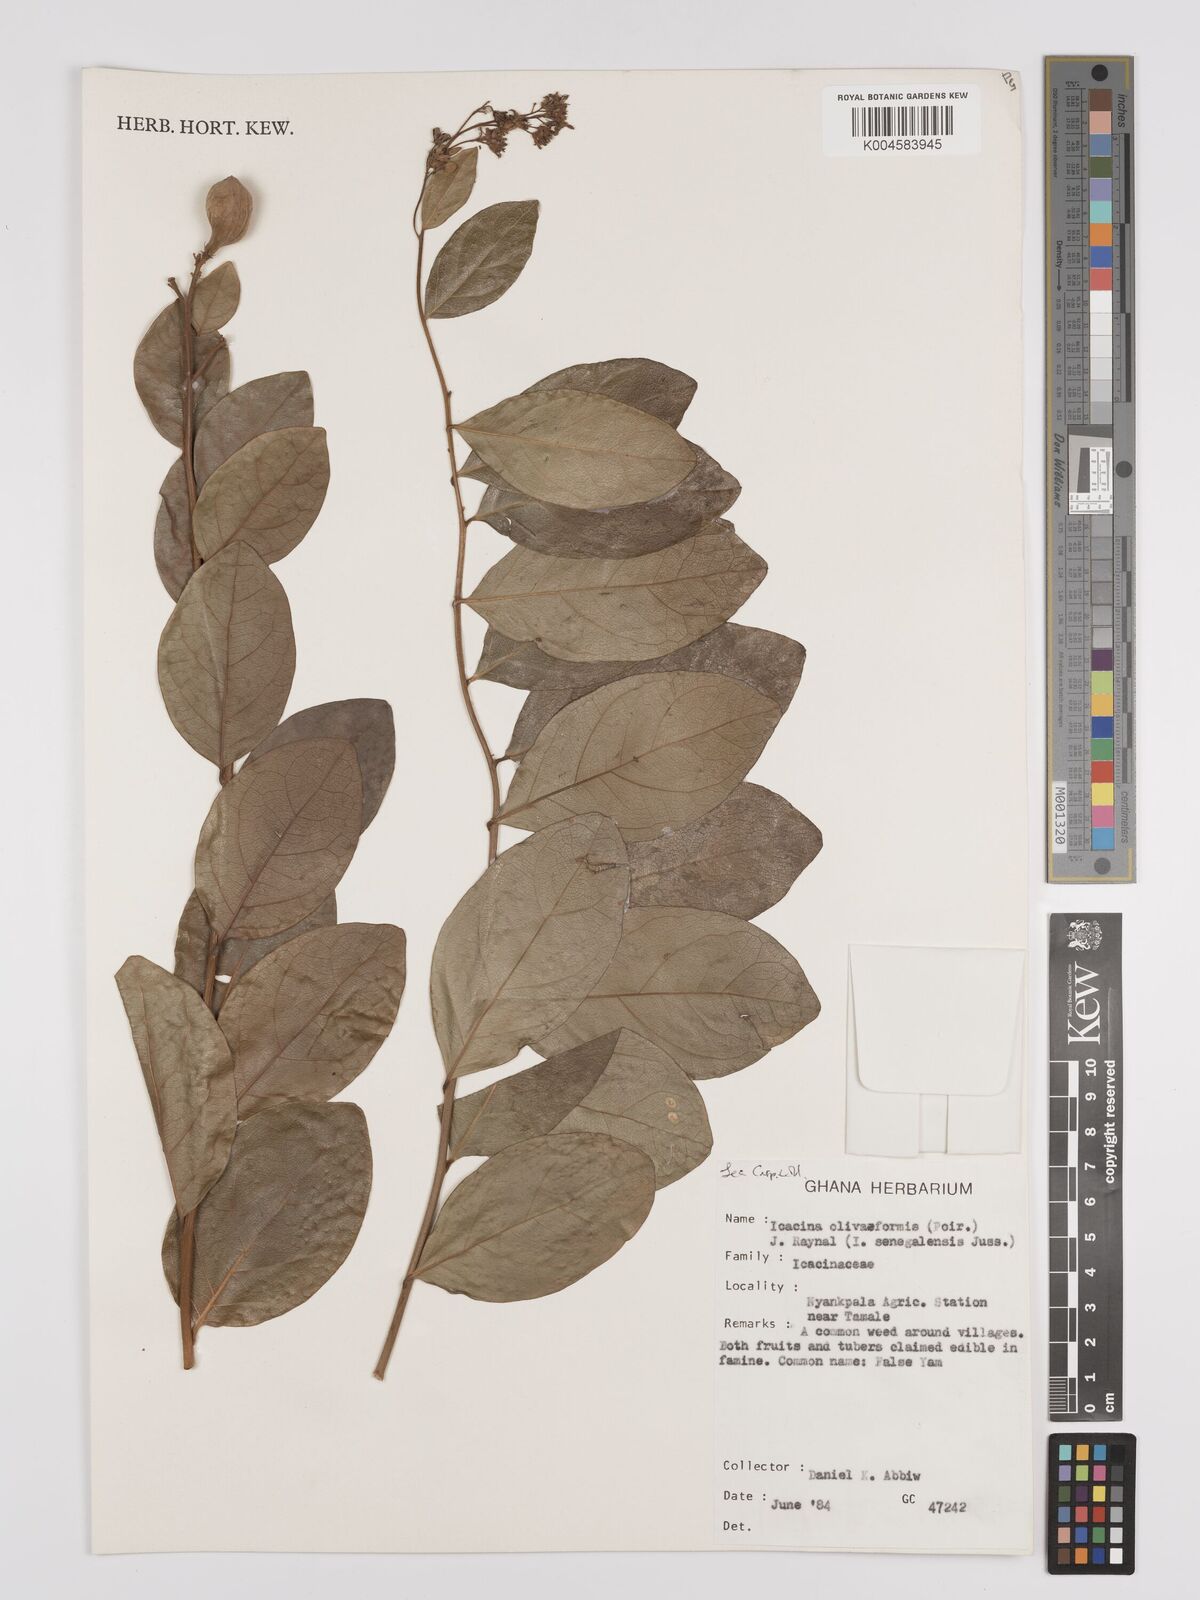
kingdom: Plantae
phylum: Tracheophyta
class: Magnoliopsida
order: Icacinales
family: Icacinaceae
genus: Icacina
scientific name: Icacina oliviformis
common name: False yam
